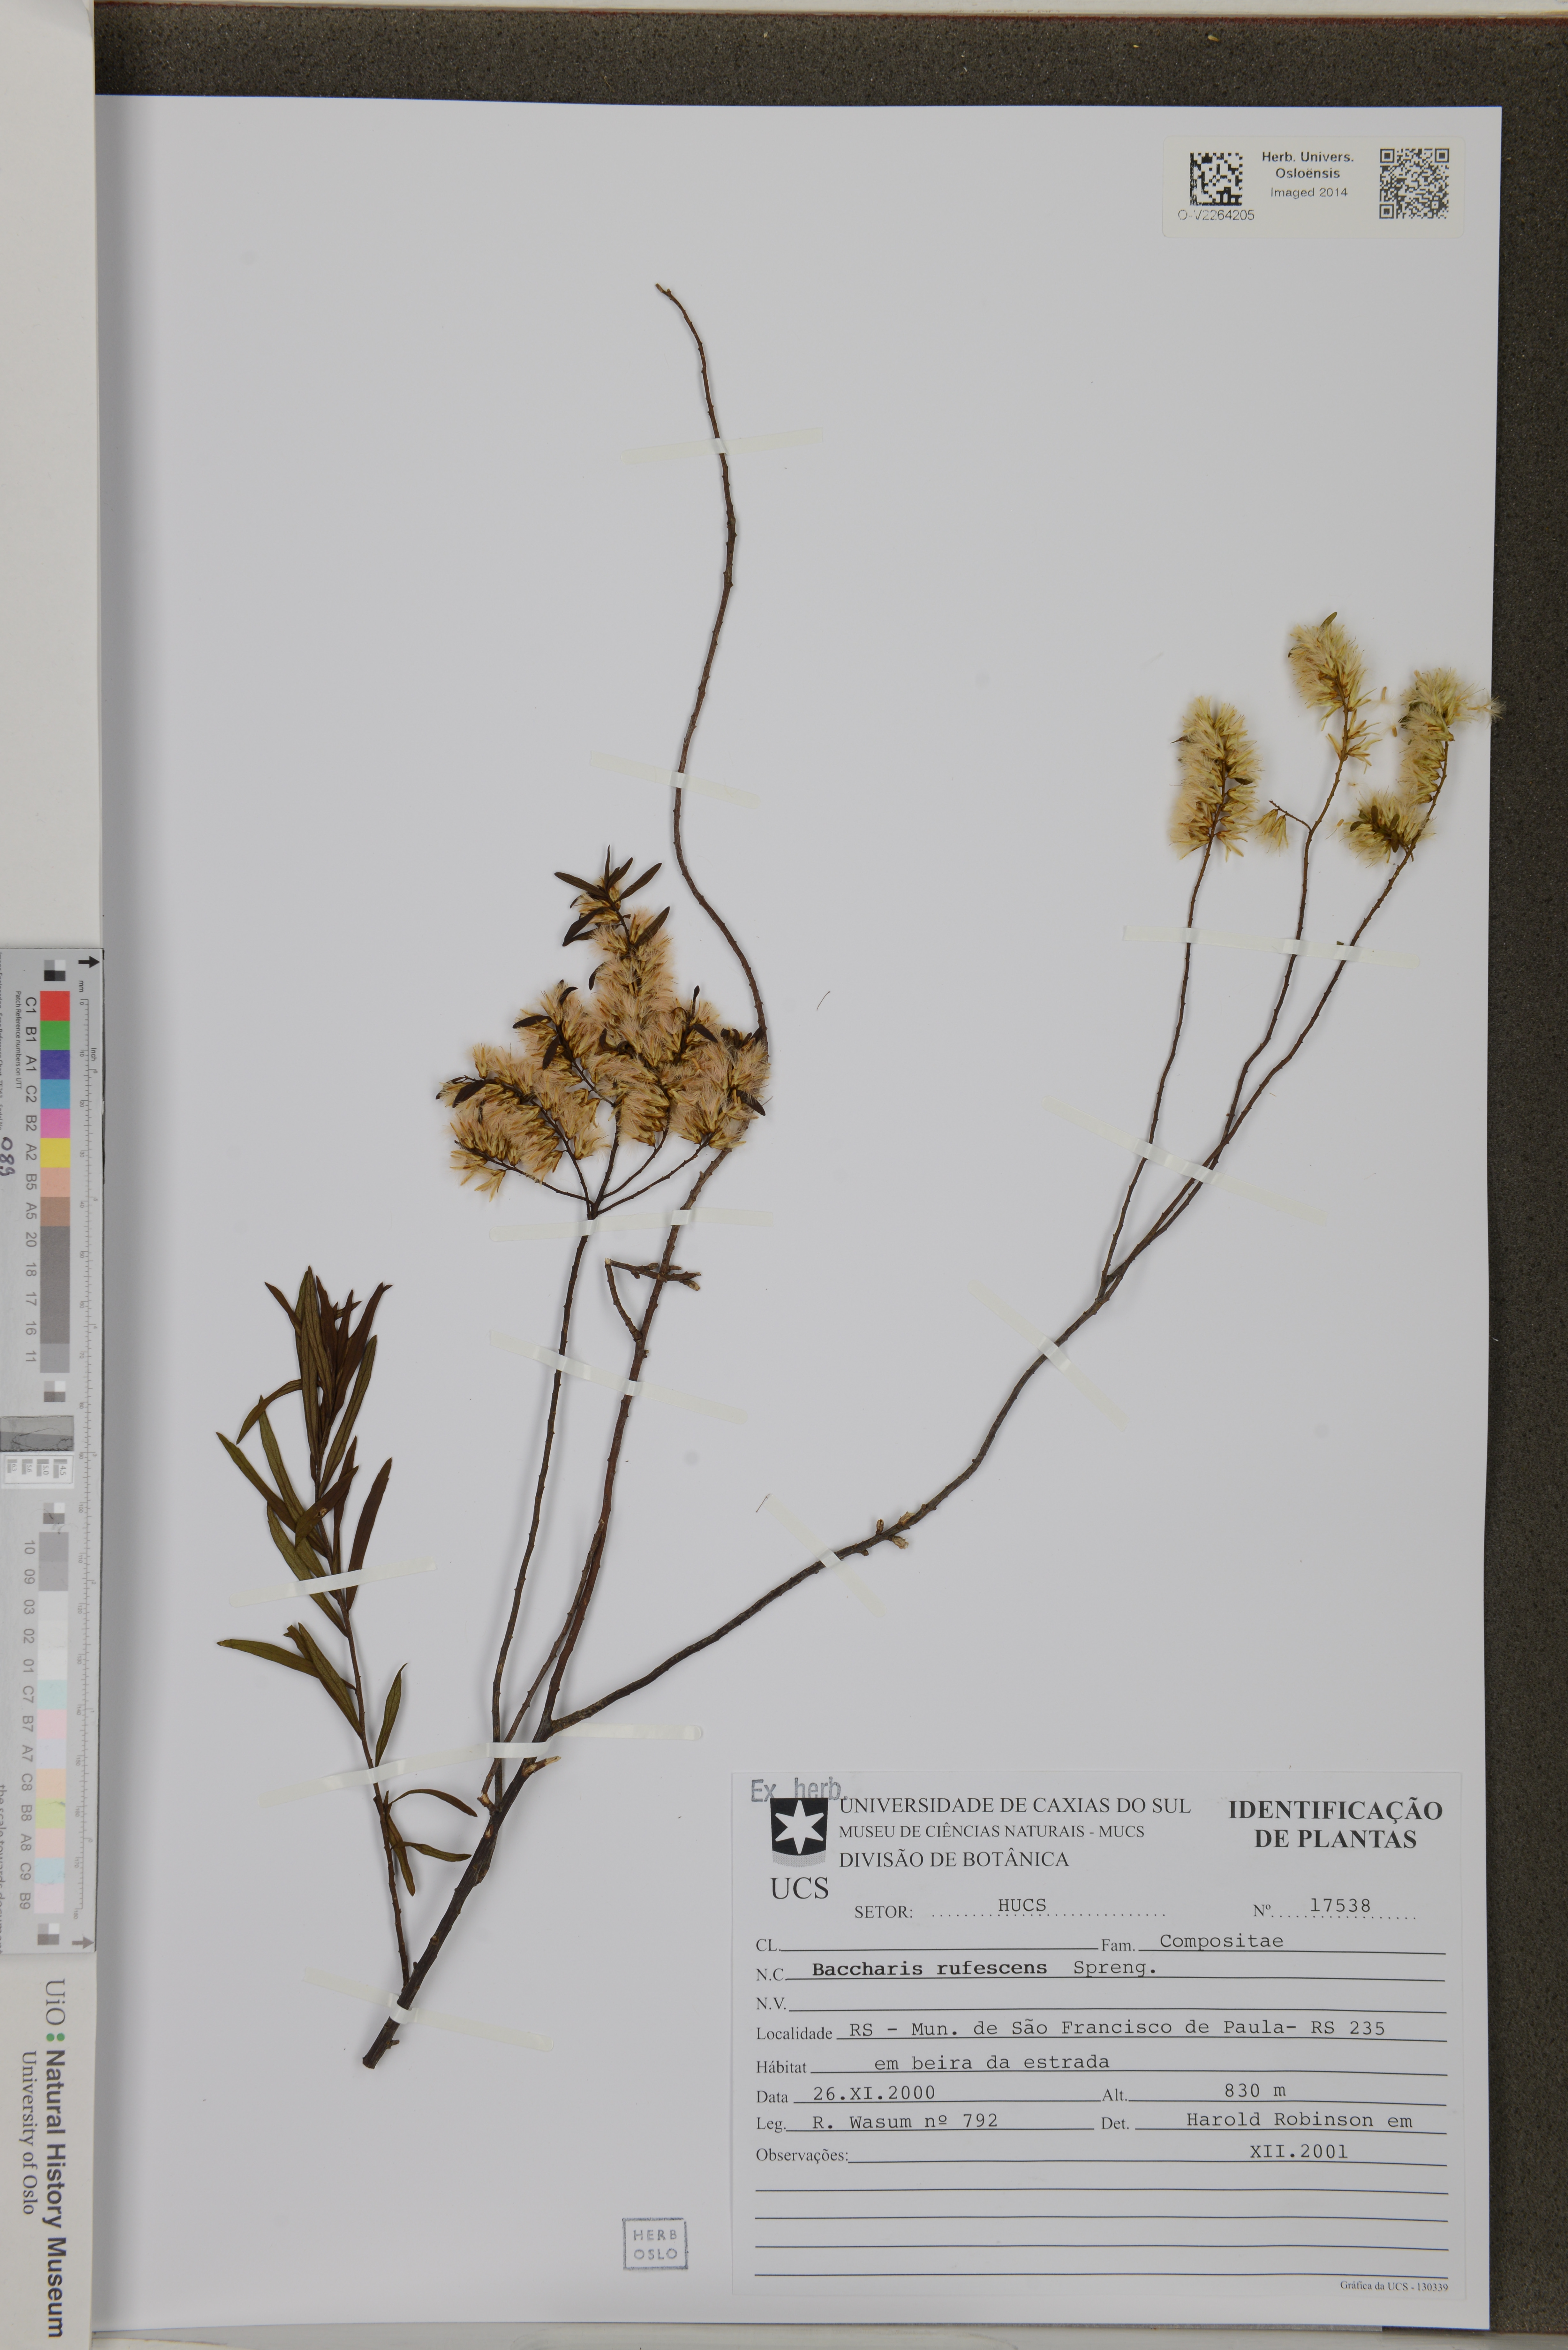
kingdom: Plantae
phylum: Tracheophyta
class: Magnoliopsida
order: Asterales
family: Asteraceae
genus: Baccharis
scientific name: Baccharis rufescens
